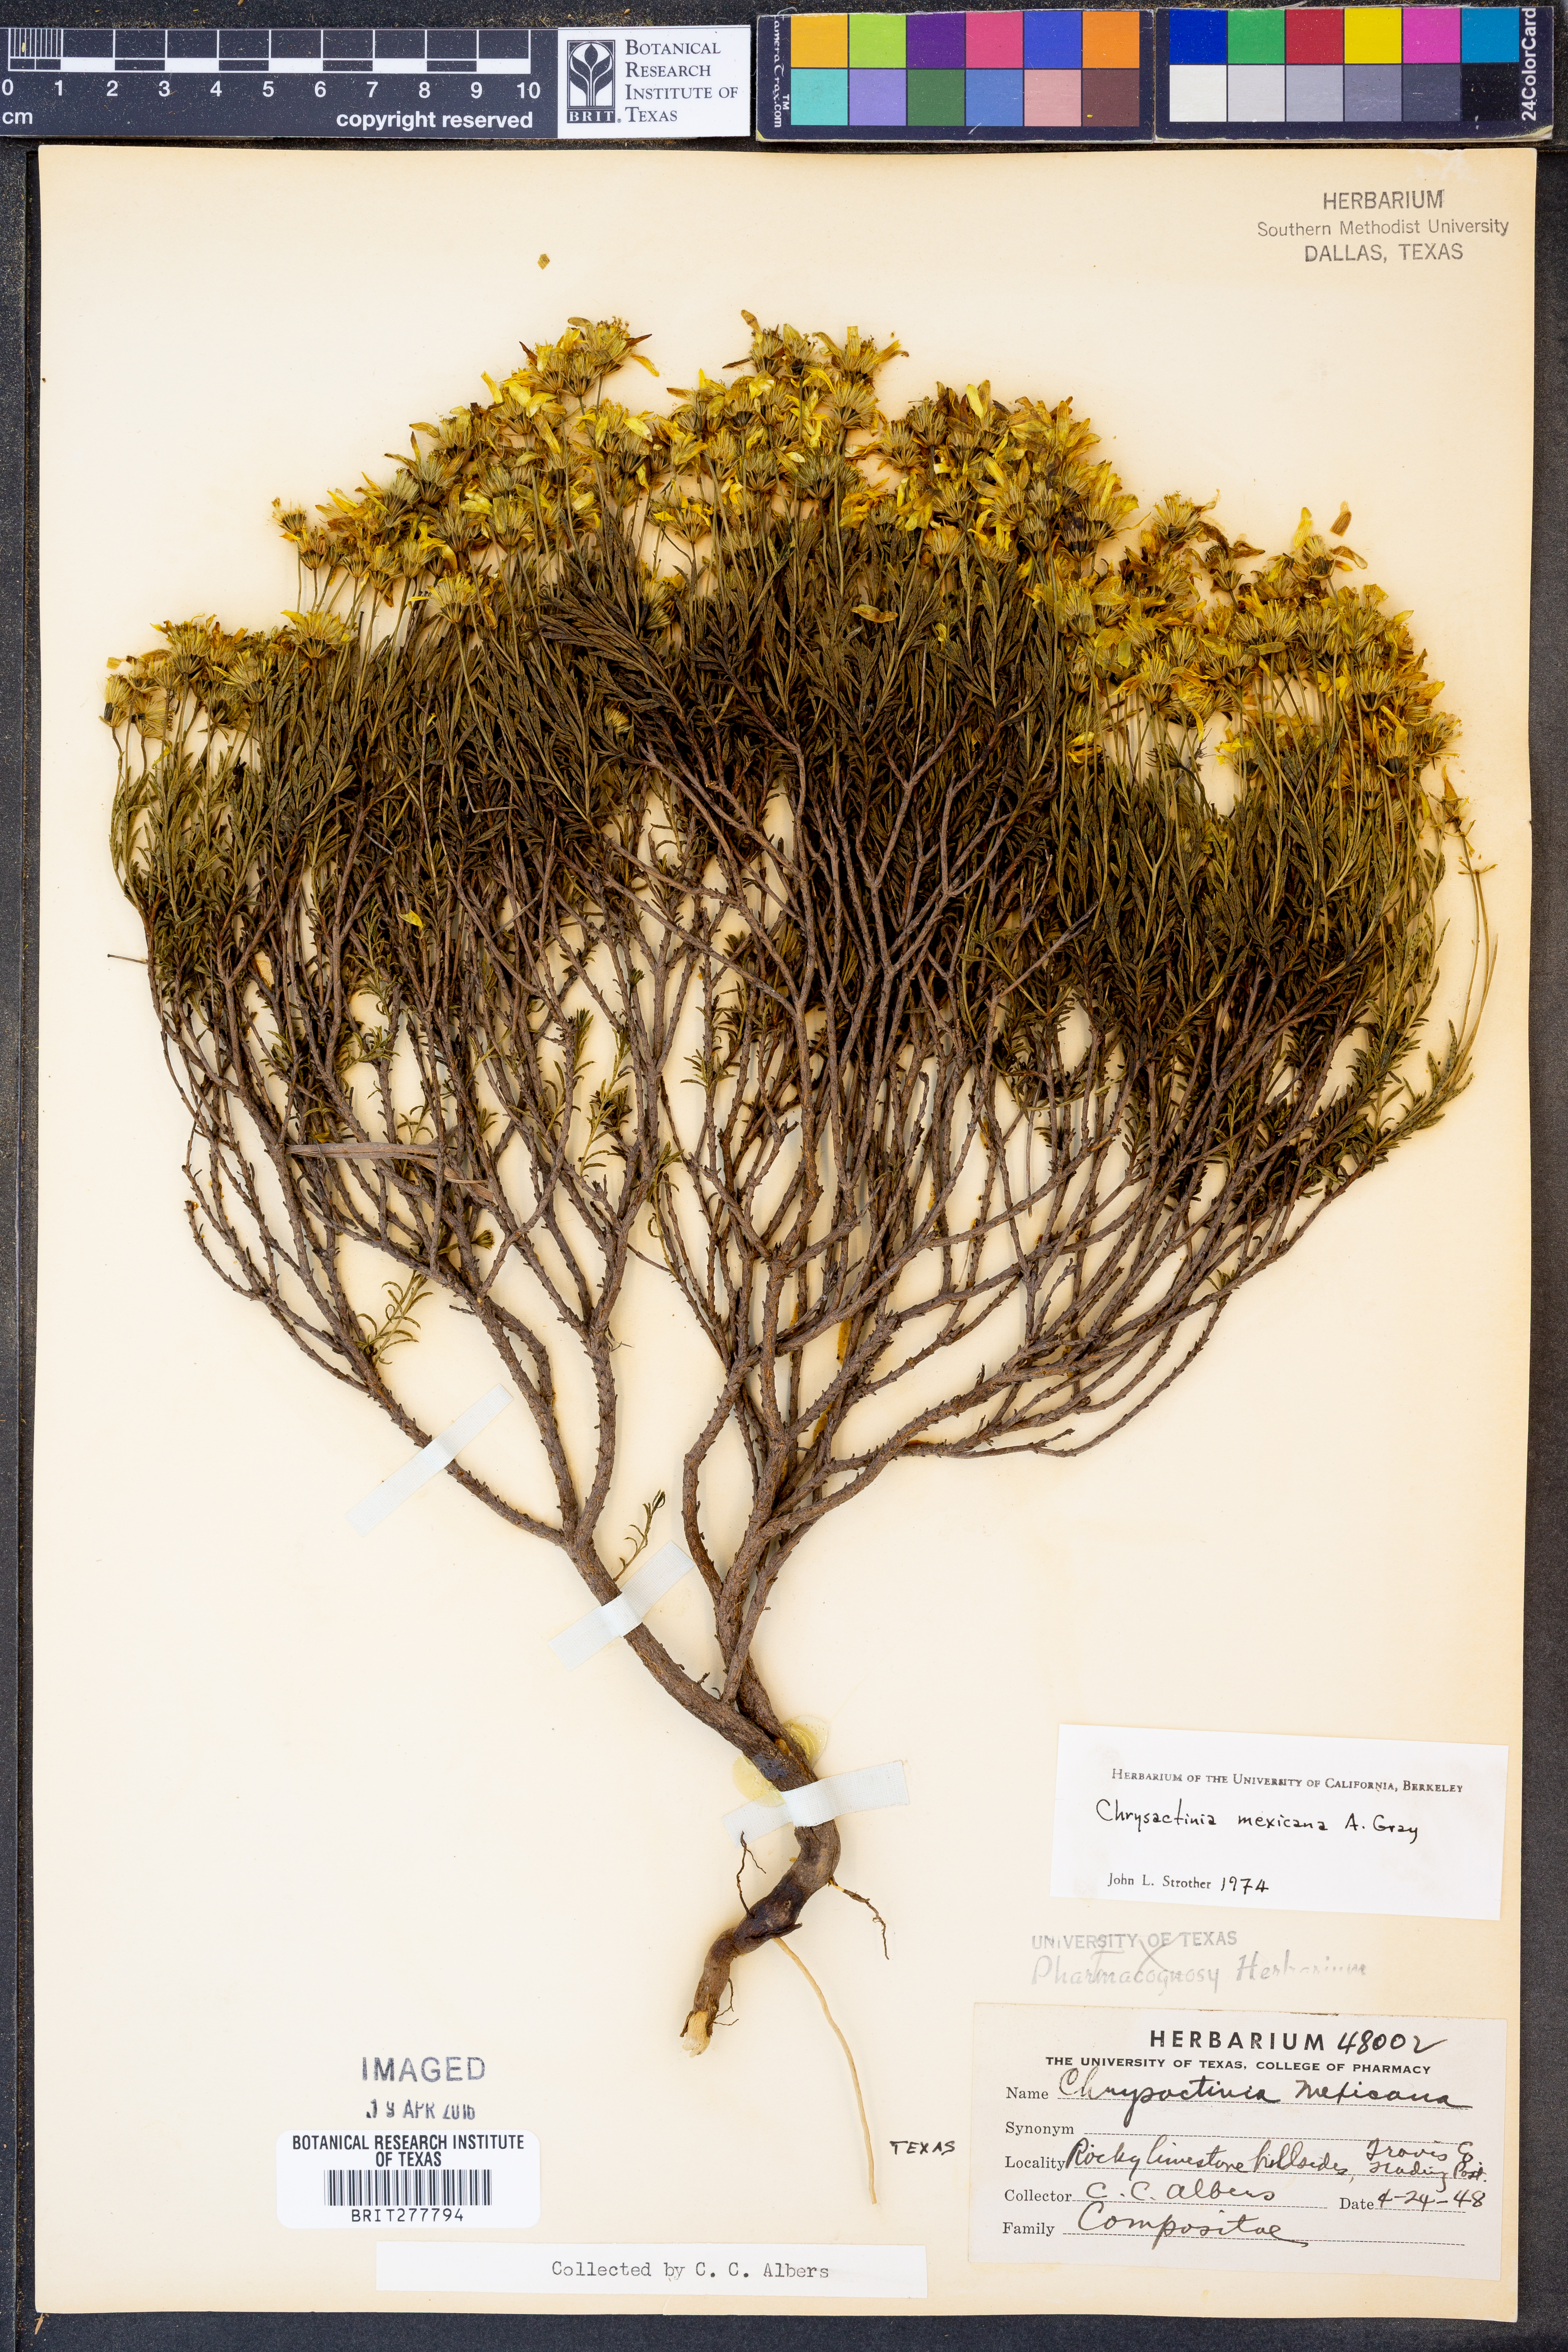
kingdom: Plantae
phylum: Tracheophyta
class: Magnoliopsida
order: Asterales
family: Asteraceae
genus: Chrysactinia
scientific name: Chrysactinia mexicana
